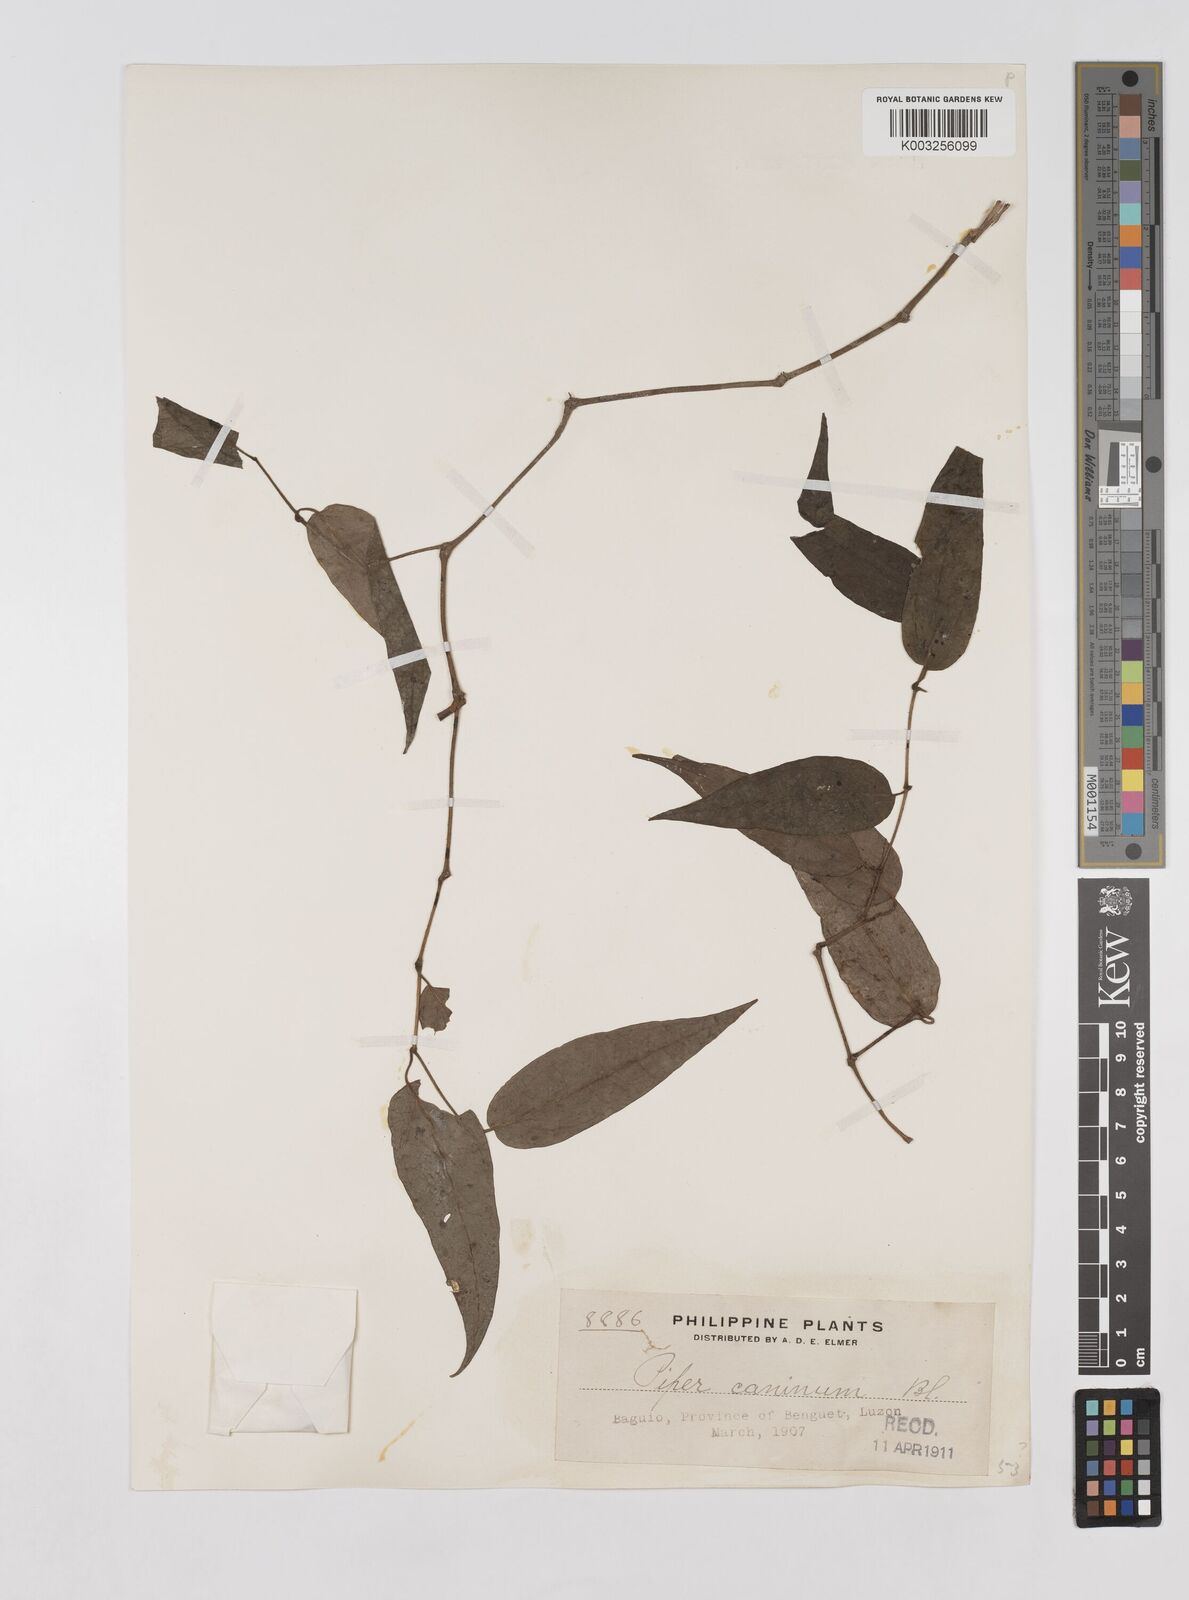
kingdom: Plantae
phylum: Tracheophyta
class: Magnoliopsida
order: Piperales
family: Piperaceae
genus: Piper
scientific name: Piper lanatum
